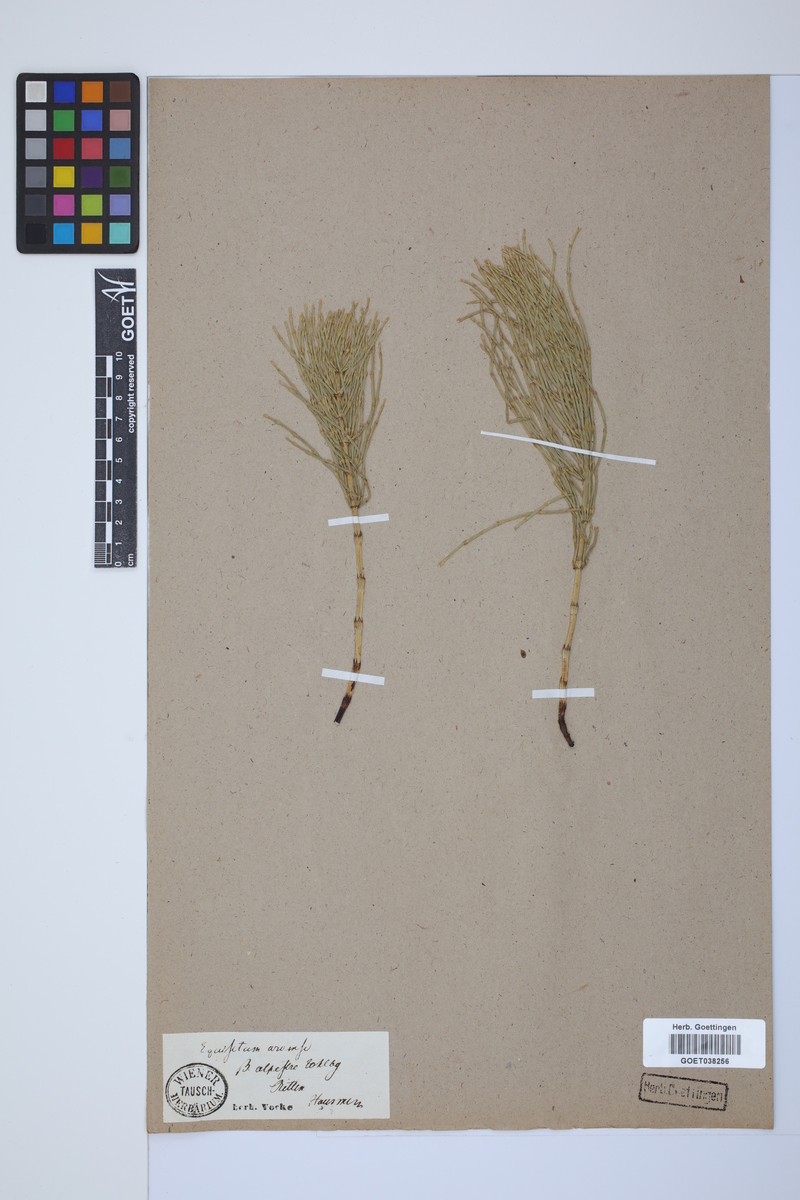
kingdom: Plantae
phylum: Tracheophyta
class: Polypodiopsida
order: Equisetales
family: Equisetaceae
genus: Equisetum
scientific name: Equisetum arvense
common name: Field horsetail
